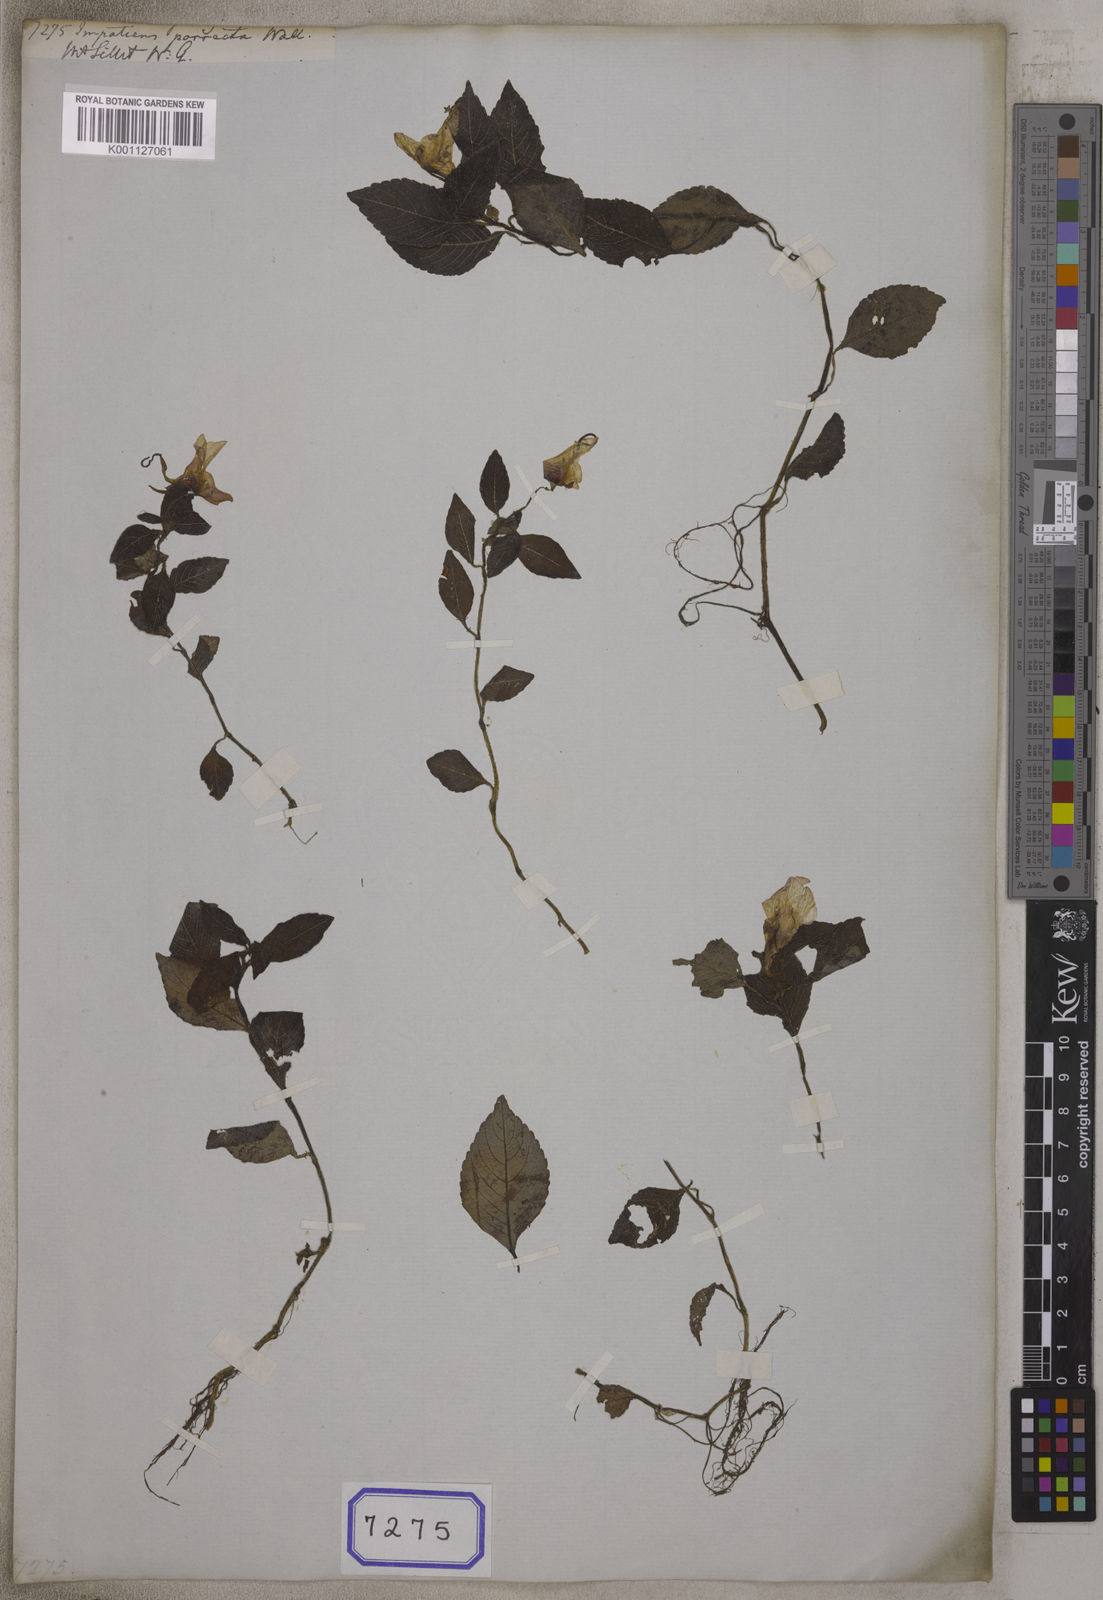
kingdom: Plantae
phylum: Tracheophyta
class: Magnoliopsida
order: Ericales
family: Balsaminaceae
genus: Impatiens
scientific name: Impatiens
